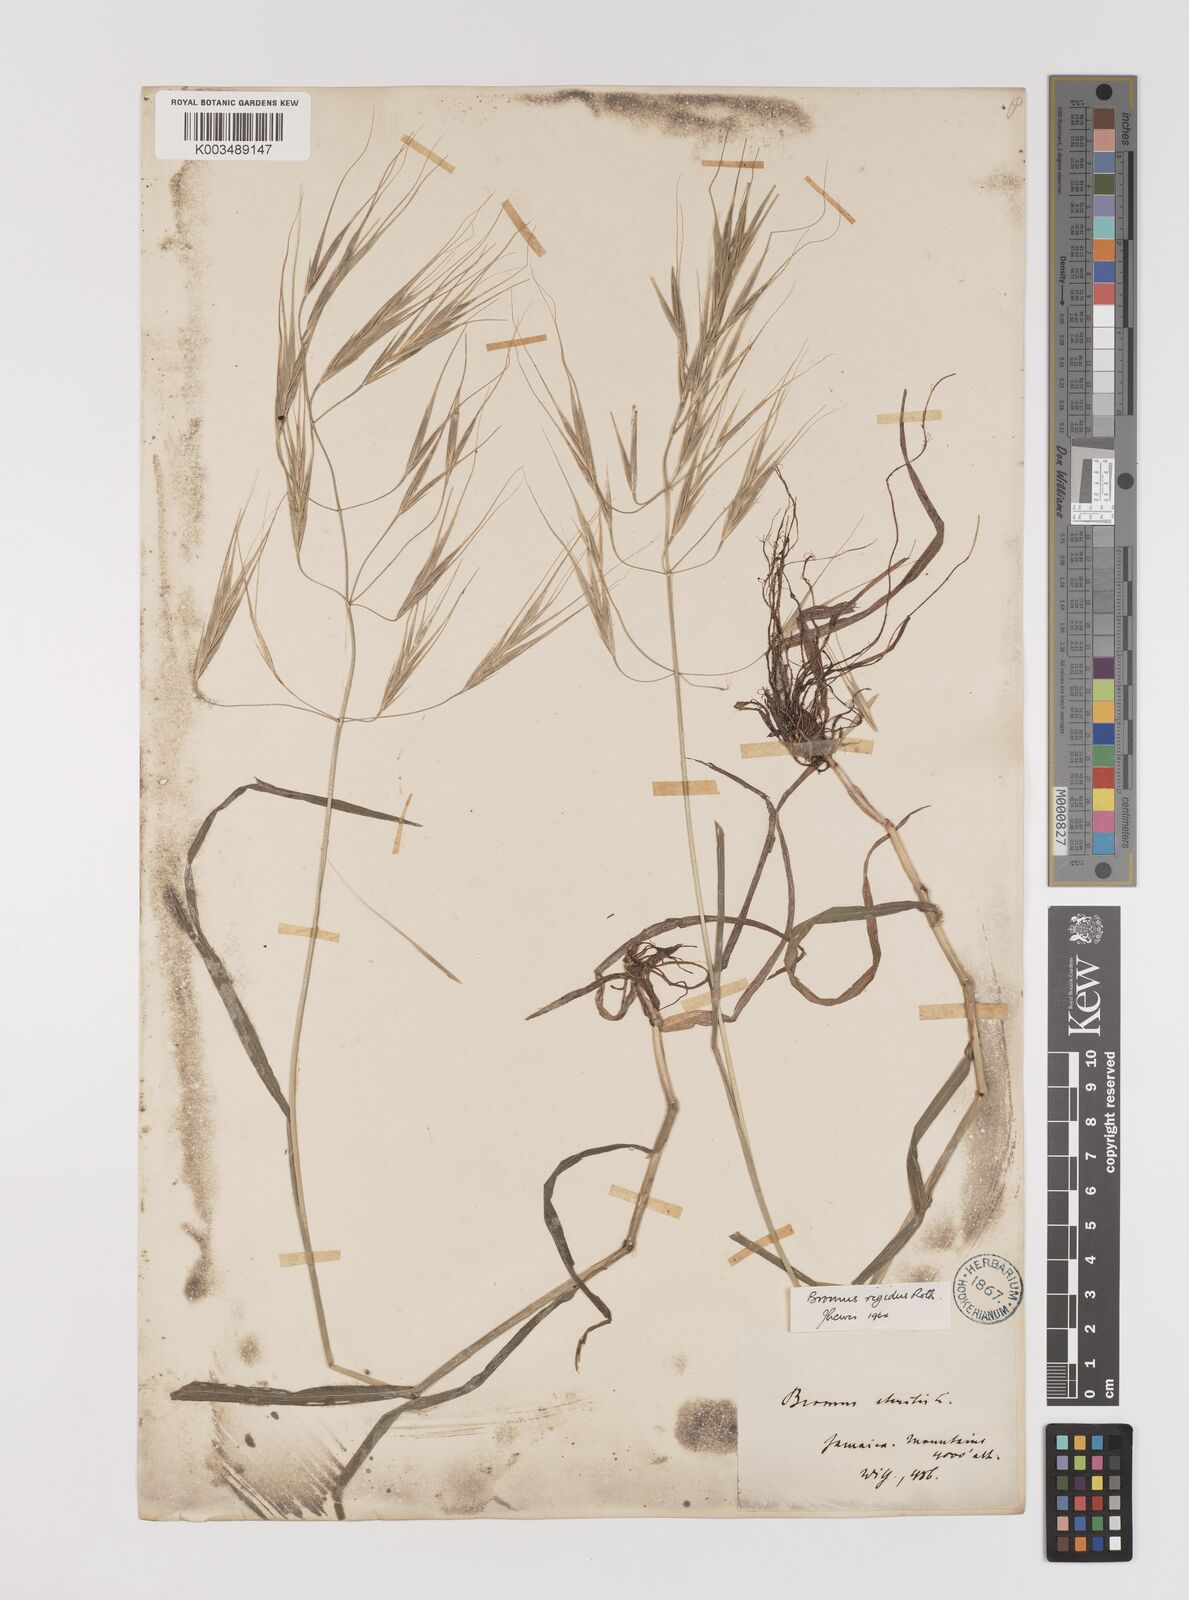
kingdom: Plantae
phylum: Tracheophyta
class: Liliopsida
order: Poales
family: Poaceae
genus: Bromus
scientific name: Bromus
